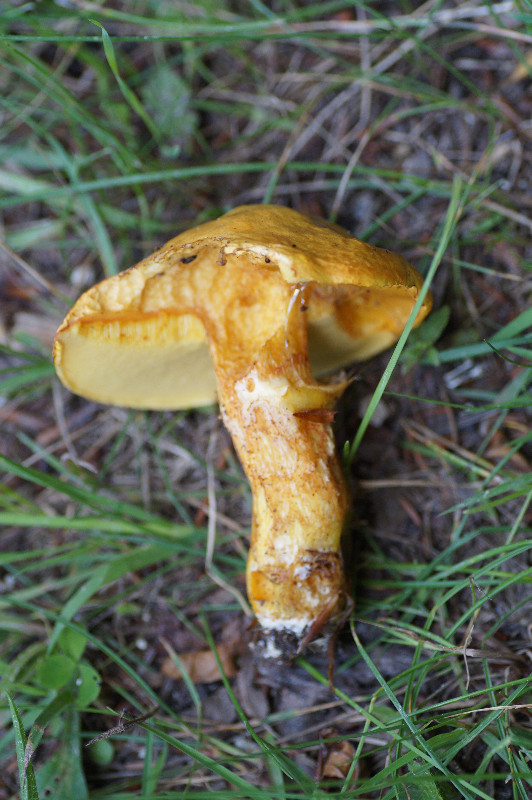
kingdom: Fungi
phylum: Basidiomycota
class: Agaricomycetes
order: Boletales
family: Suillaceae
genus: Suillus
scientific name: Suillus grevillei
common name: lærke-slimrørhat
